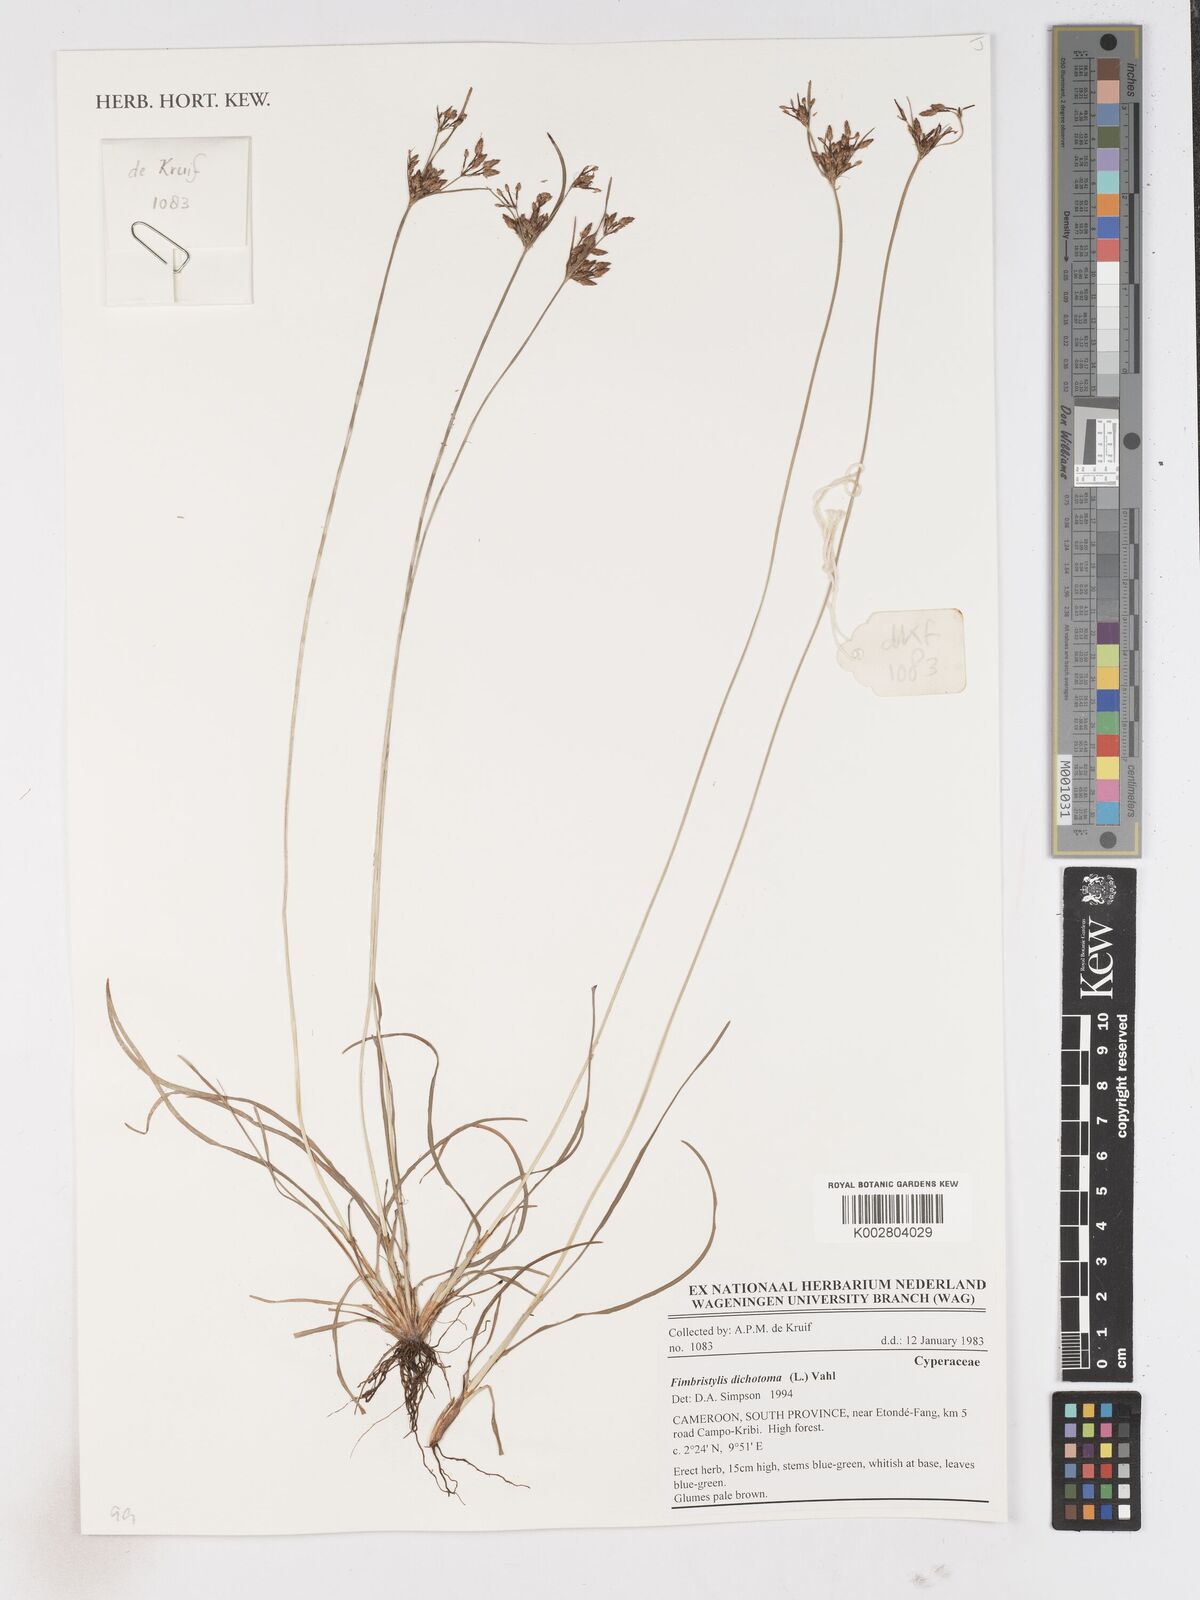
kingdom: Plantae
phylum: Tracheophyta
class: Liliopsida
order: Poales
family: Cyperaceae
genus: Fimbristylis
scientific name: Fimbristylis dichotoma
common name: Forked fimbry
